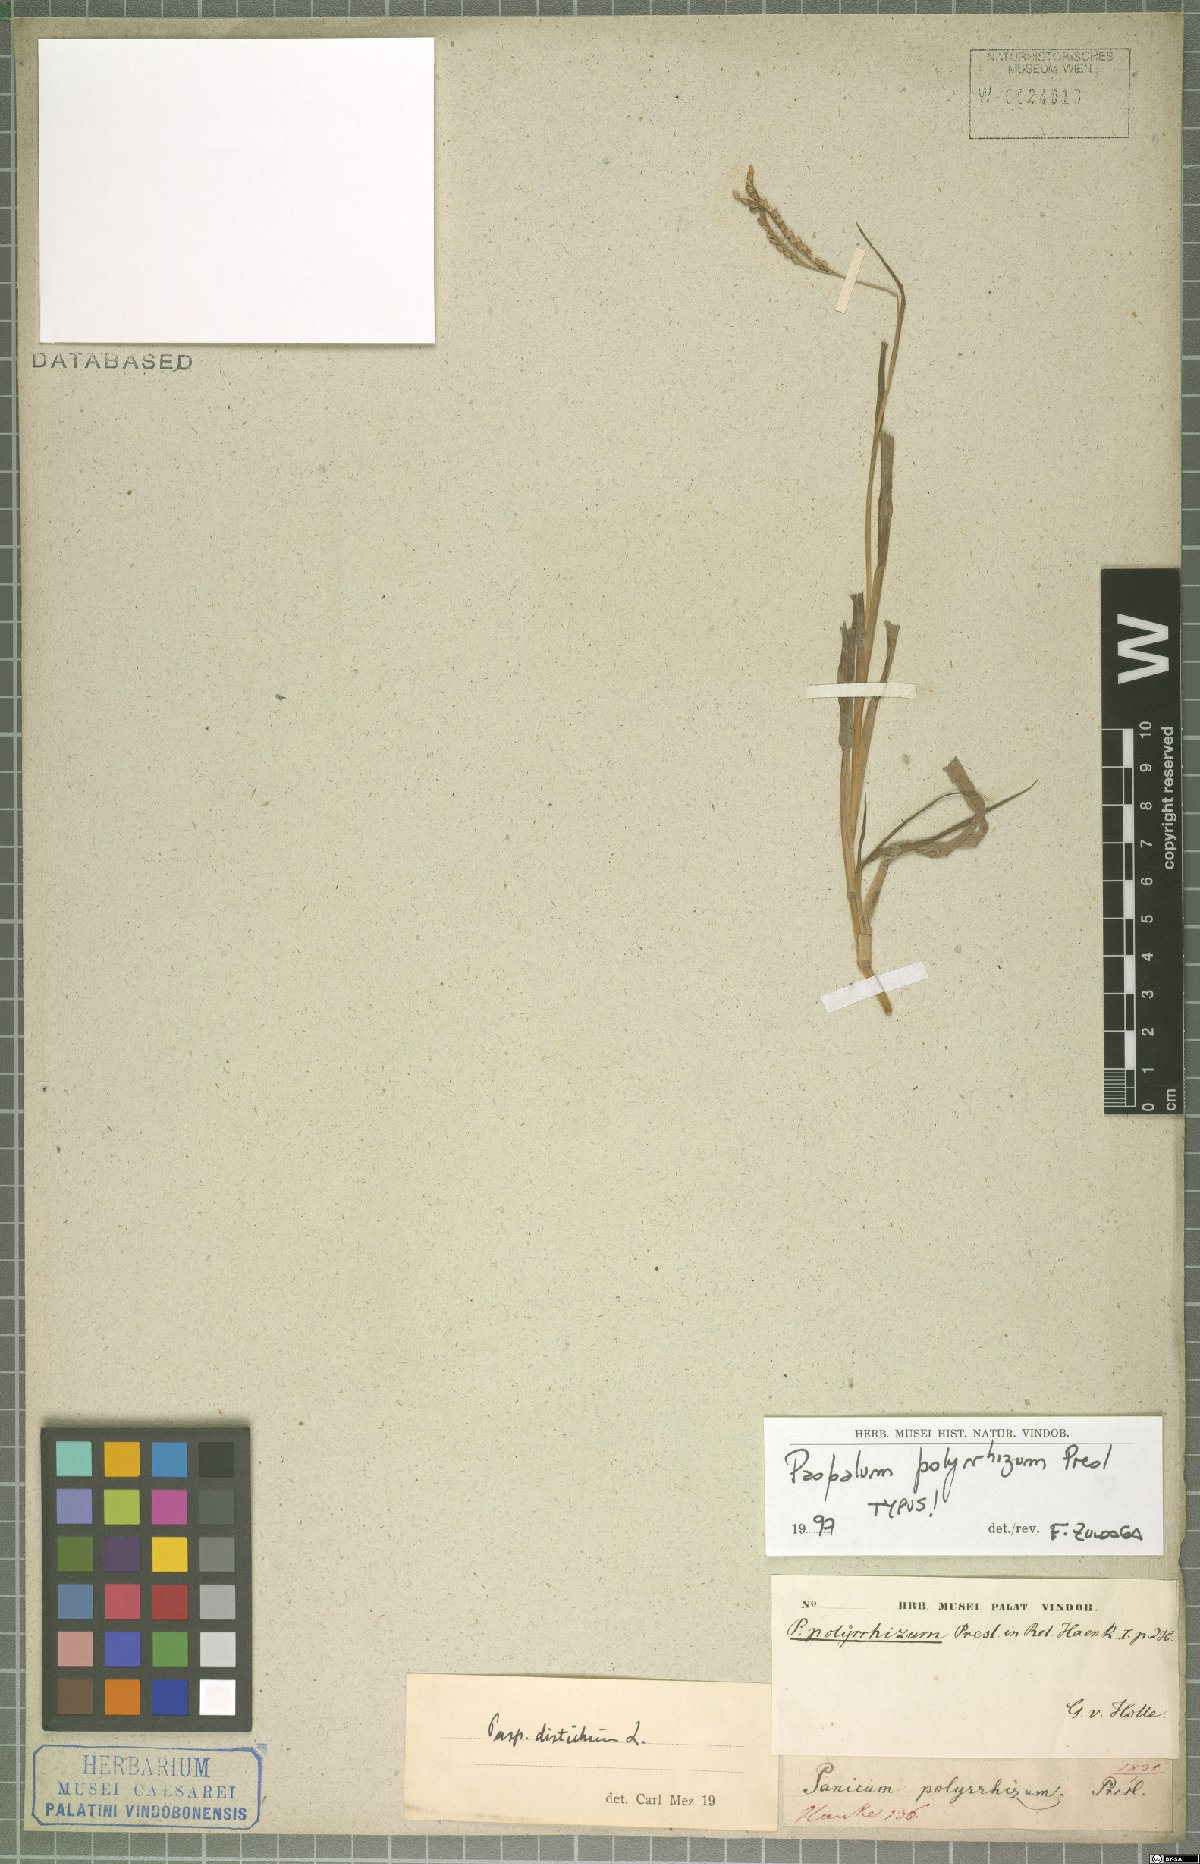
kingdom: Plantae
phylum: Tracheophyta
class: Liliopsida
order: Poales
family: Poaceae
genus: Paspalum
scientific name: Paspalum distichum
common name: Knotgrass
